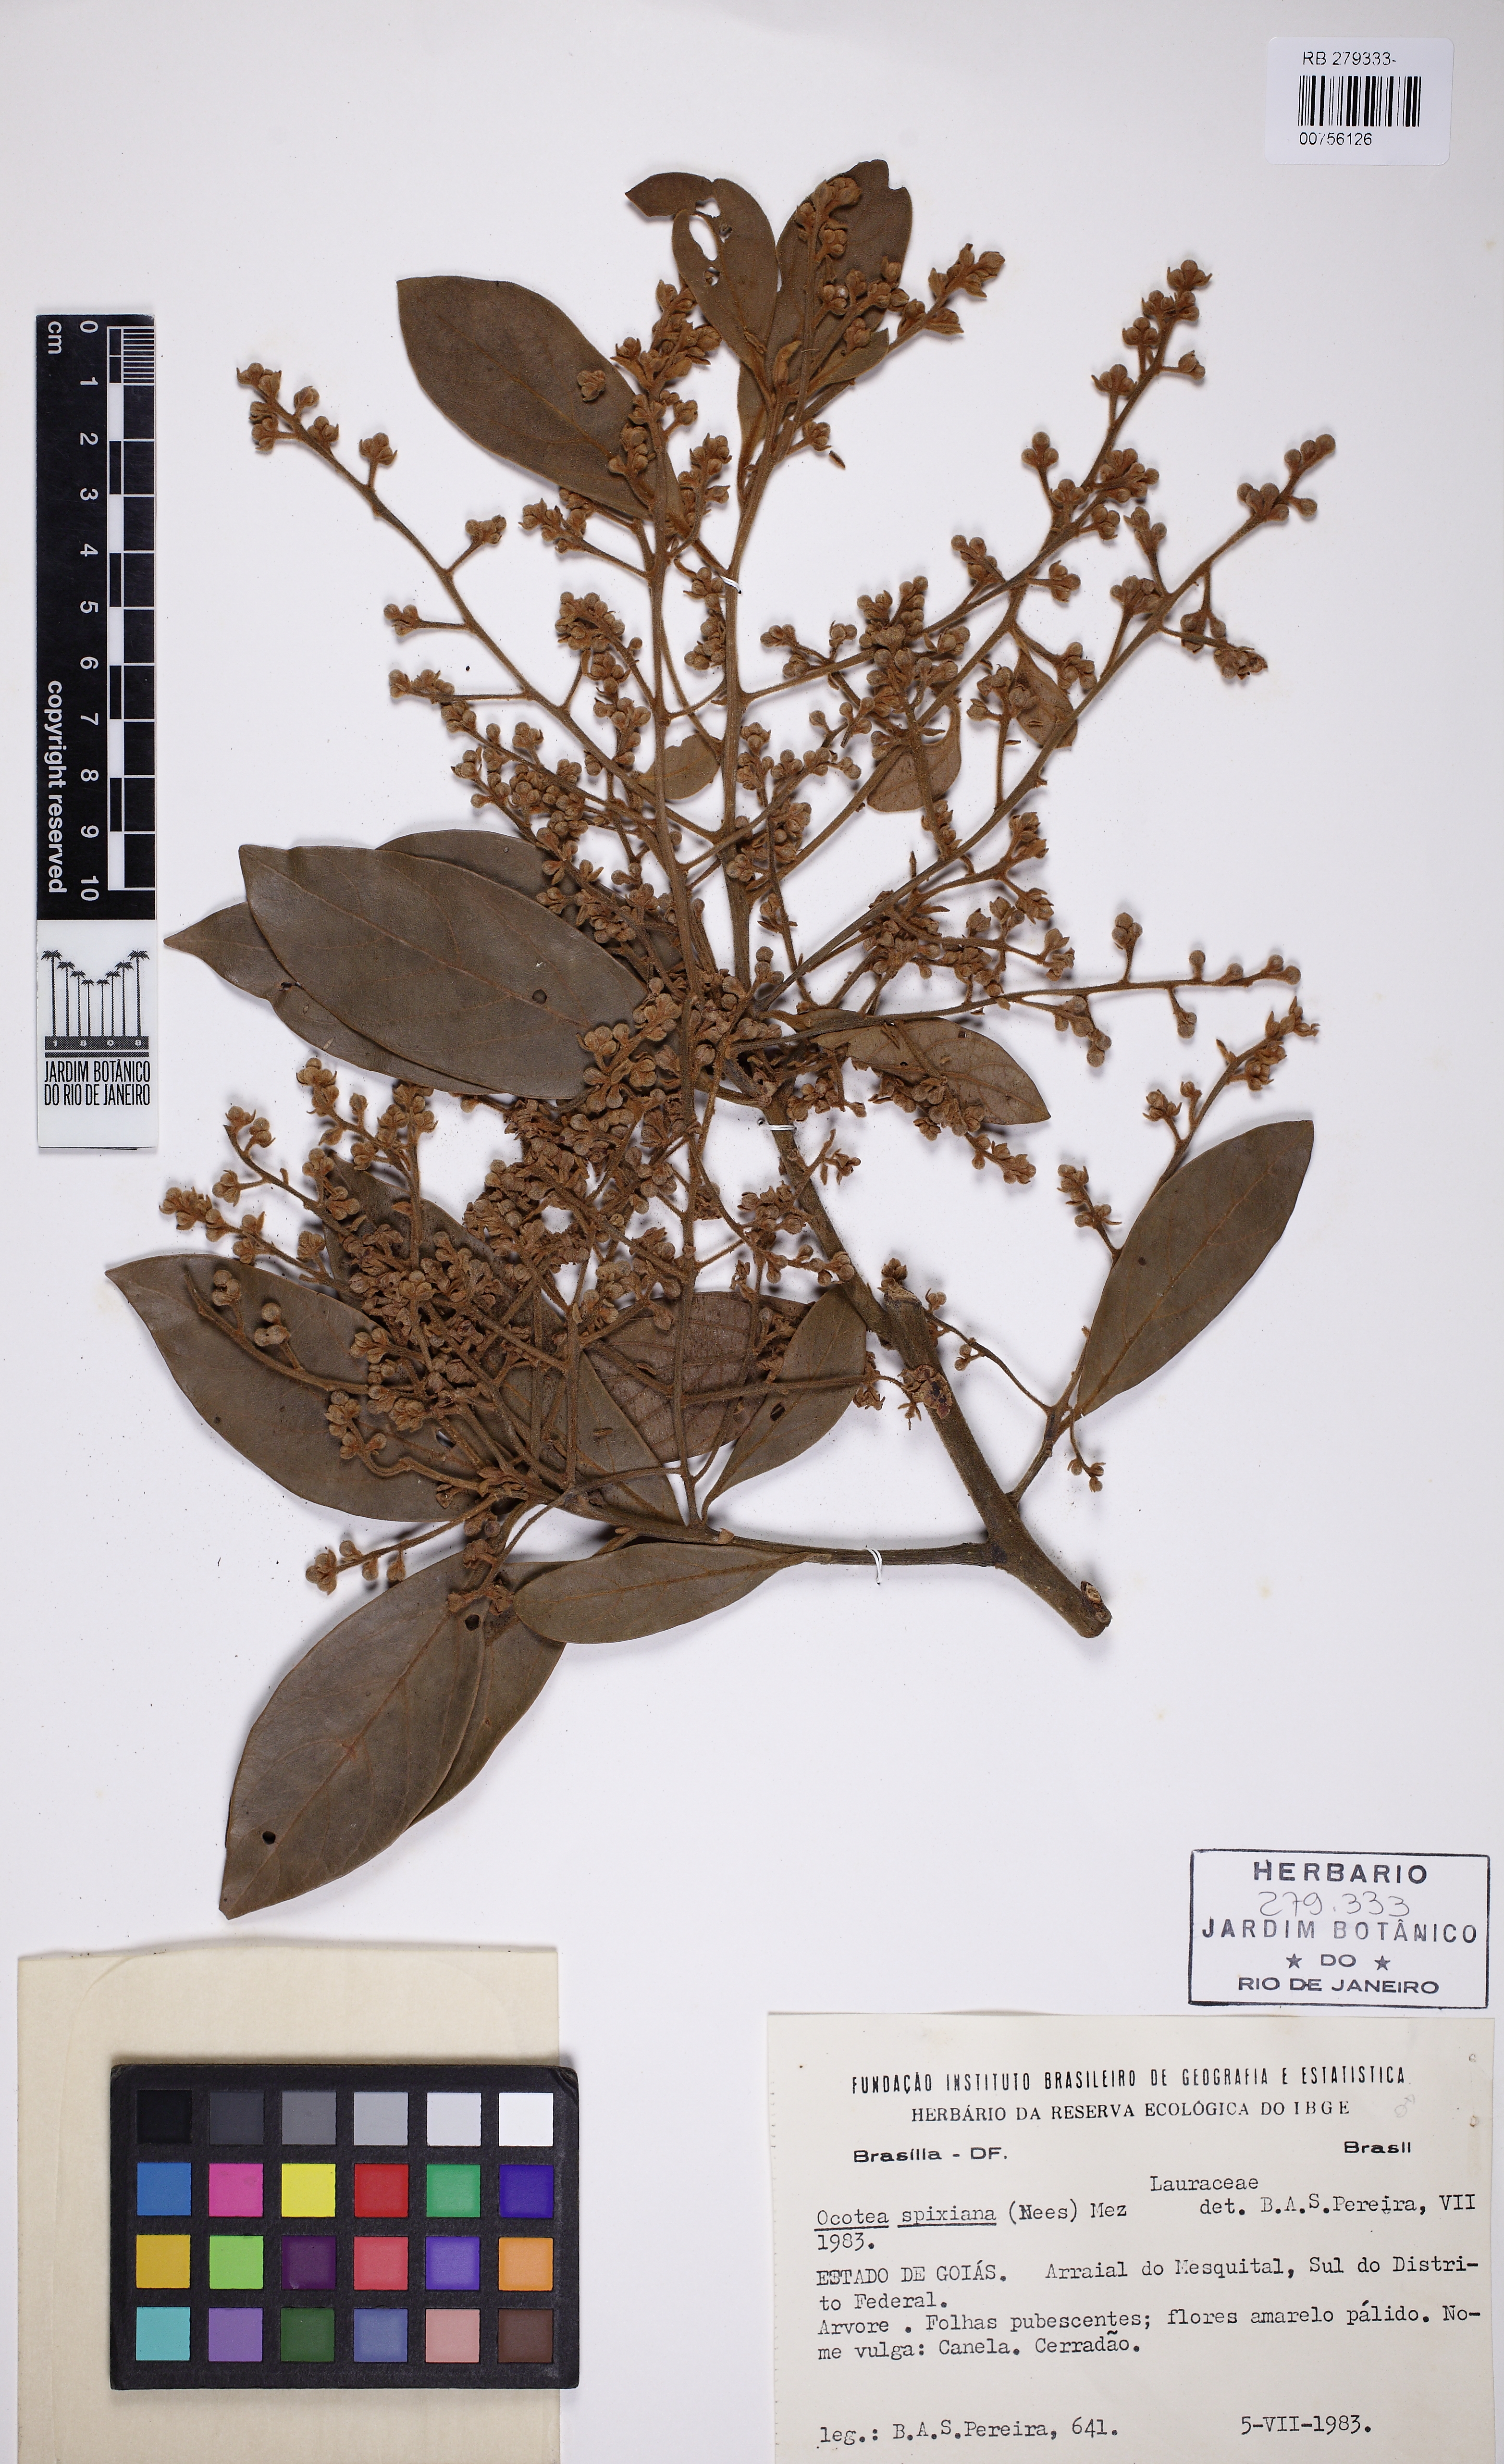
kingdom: Plantae
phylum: Tracheophyta
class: Magnoliopsida
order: Laurales
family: Lauraceae
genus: Ocotea
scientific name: Ocotea spixiana
